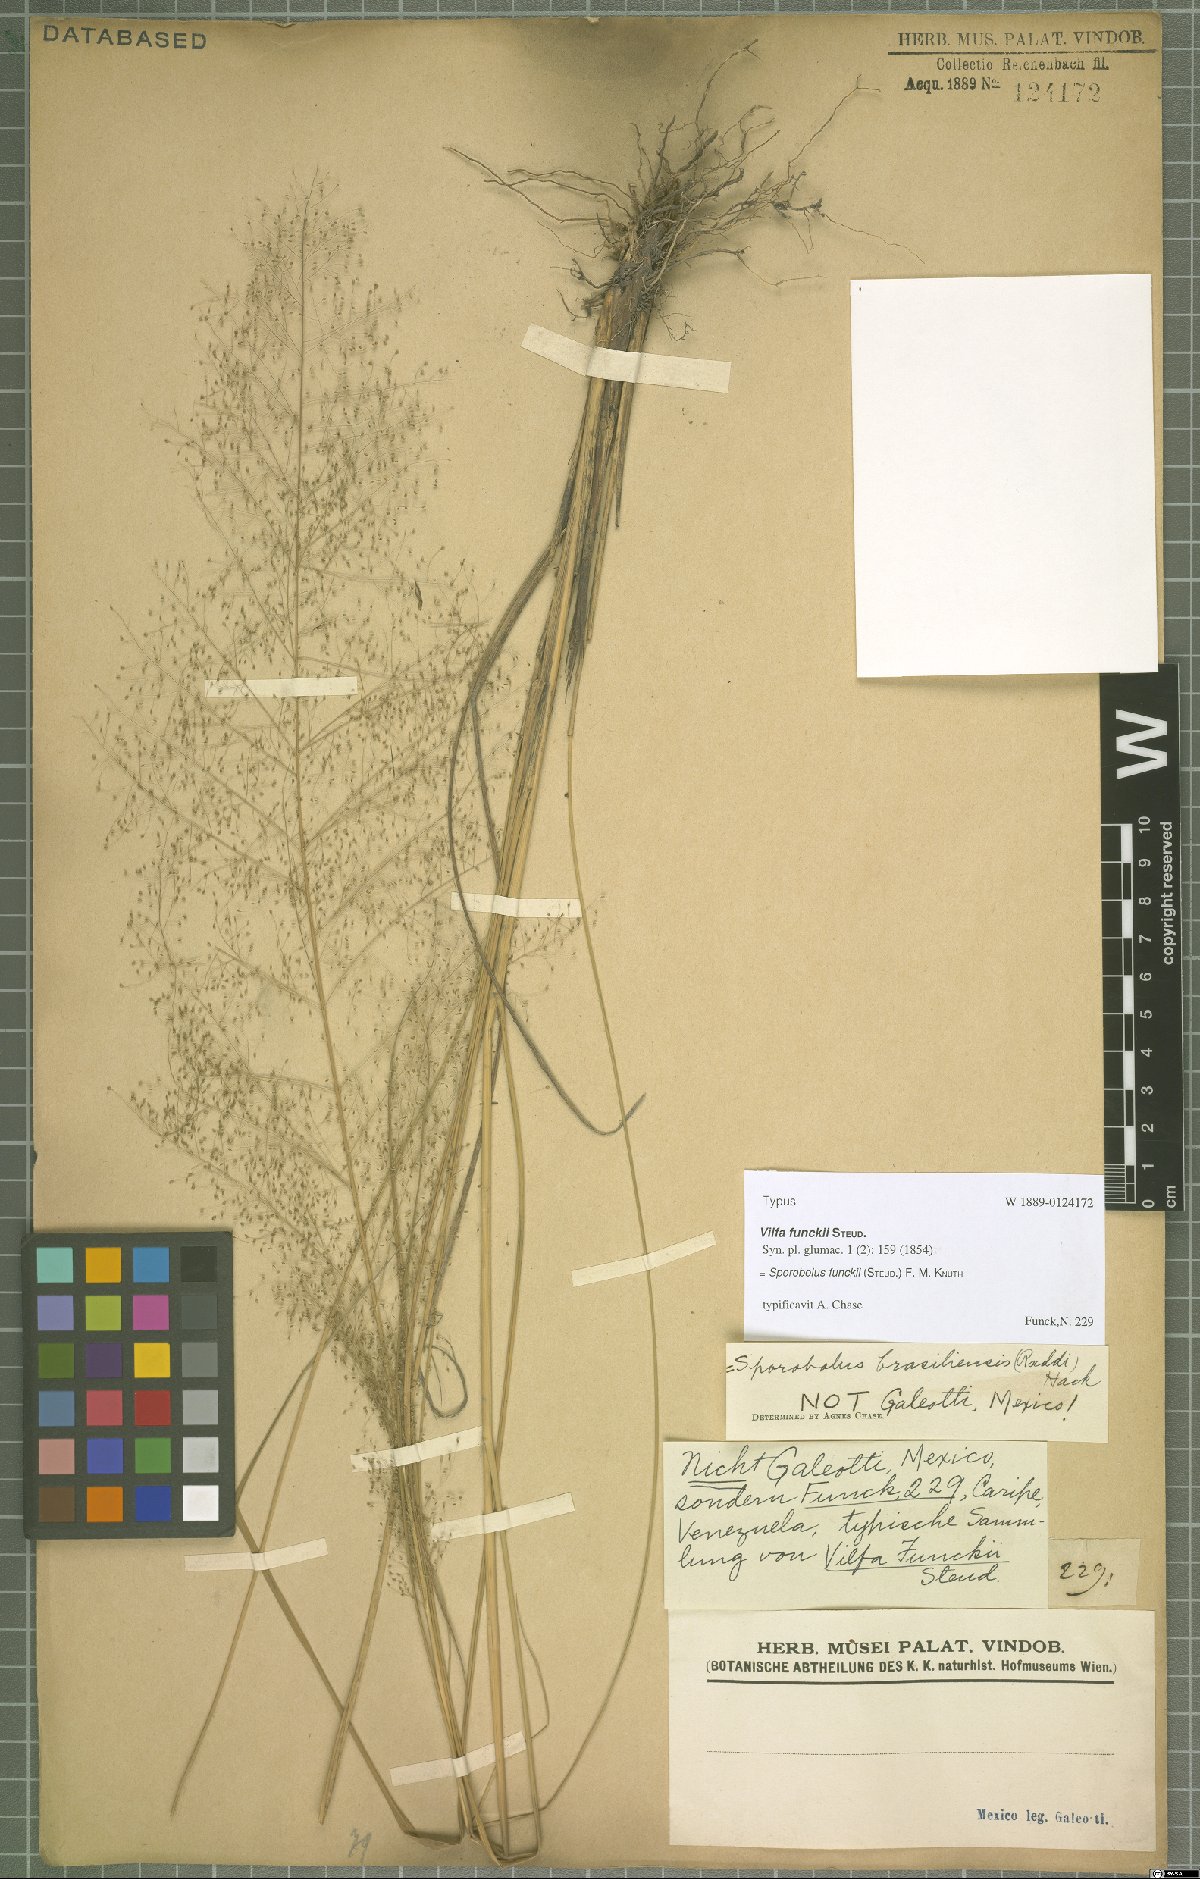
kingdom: Plantae
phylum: Tracheophyta
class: Liliopsida
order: Poales
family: Poaceae
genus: Eragrostis
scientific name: Eragrostis airoides
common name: Darnel lovegrass
